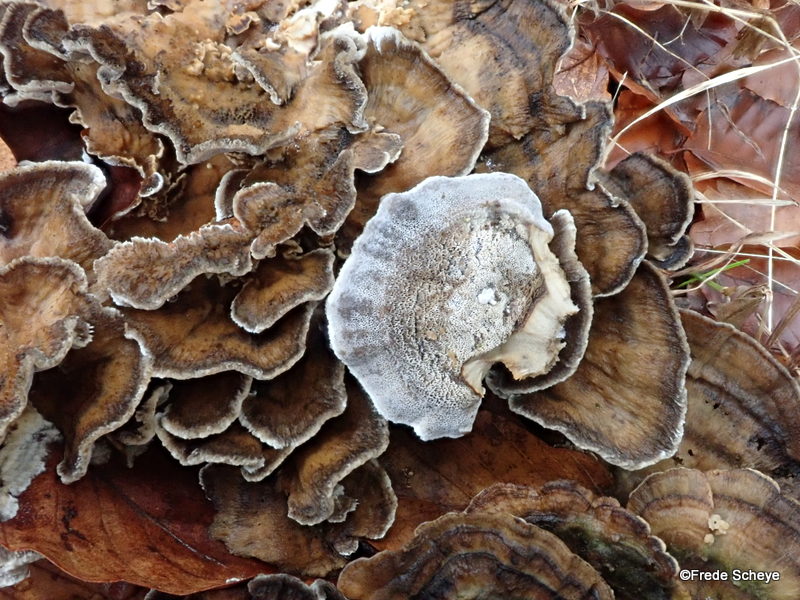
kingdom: Fungi
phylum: Basidiomycota
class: Agaricomycetes
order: Polyporales
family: Phanerochaetaceae
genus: Bjerkandera
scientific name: Bjerkandera adusta
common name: sveden sodporesvamp
